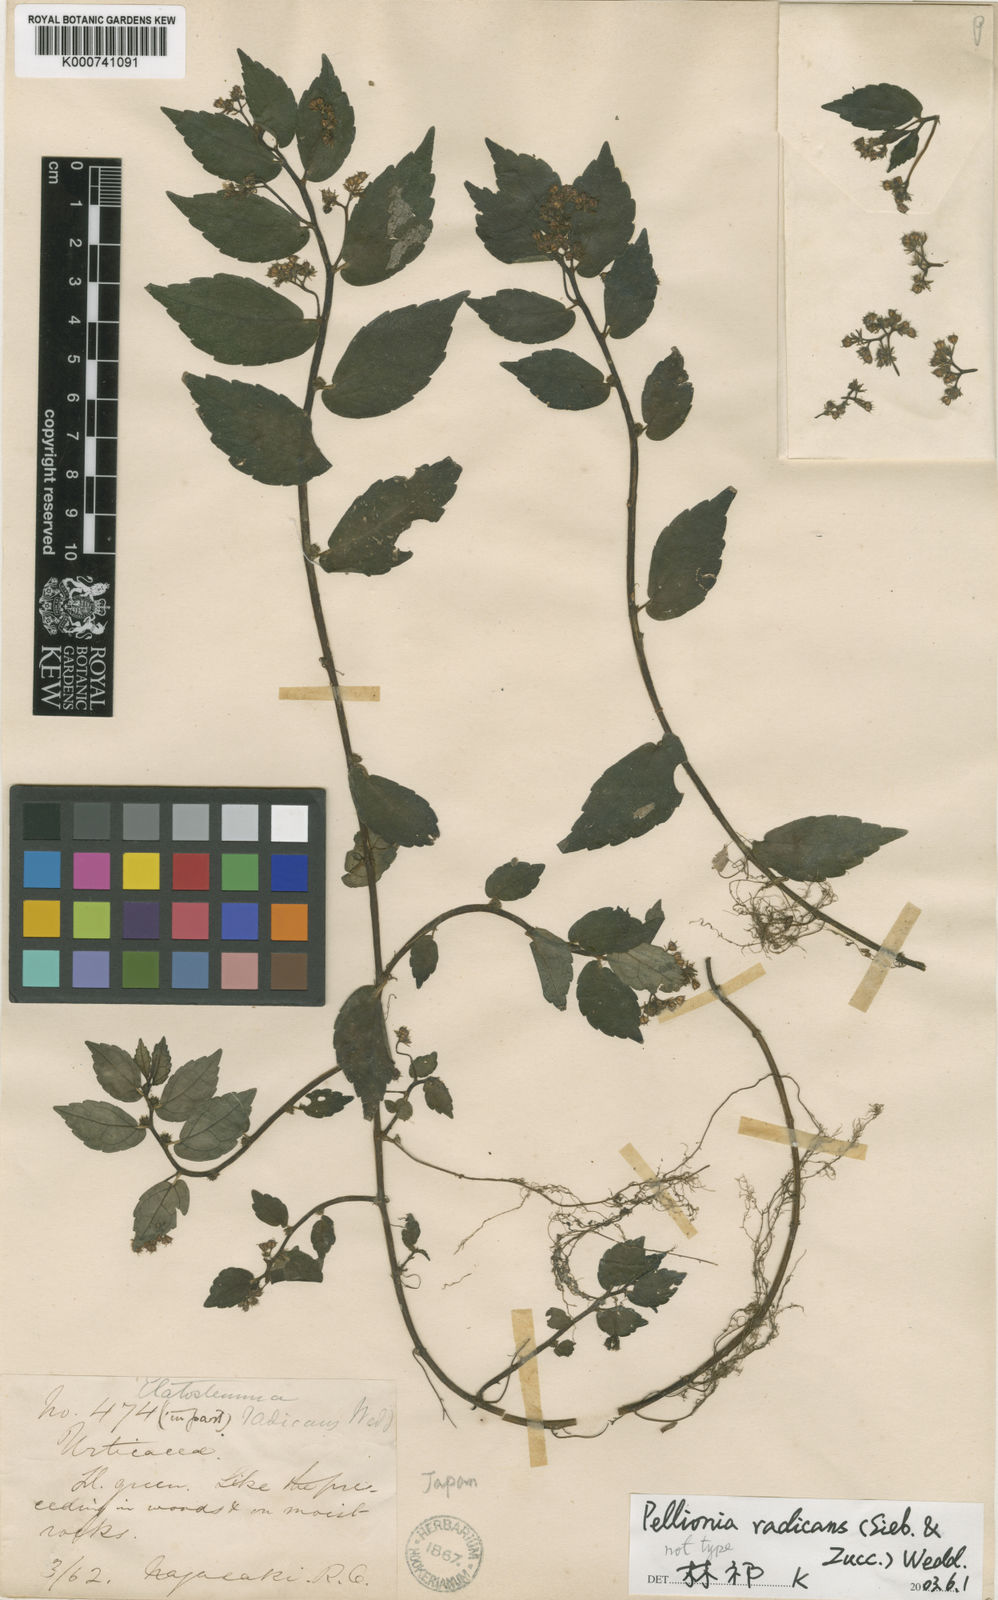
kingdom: Plantae
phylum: Tracheophyta
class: Magnoliopsida
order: Rosales
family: Urticaceae
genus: Elatostema
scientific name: Elatostema radicans
